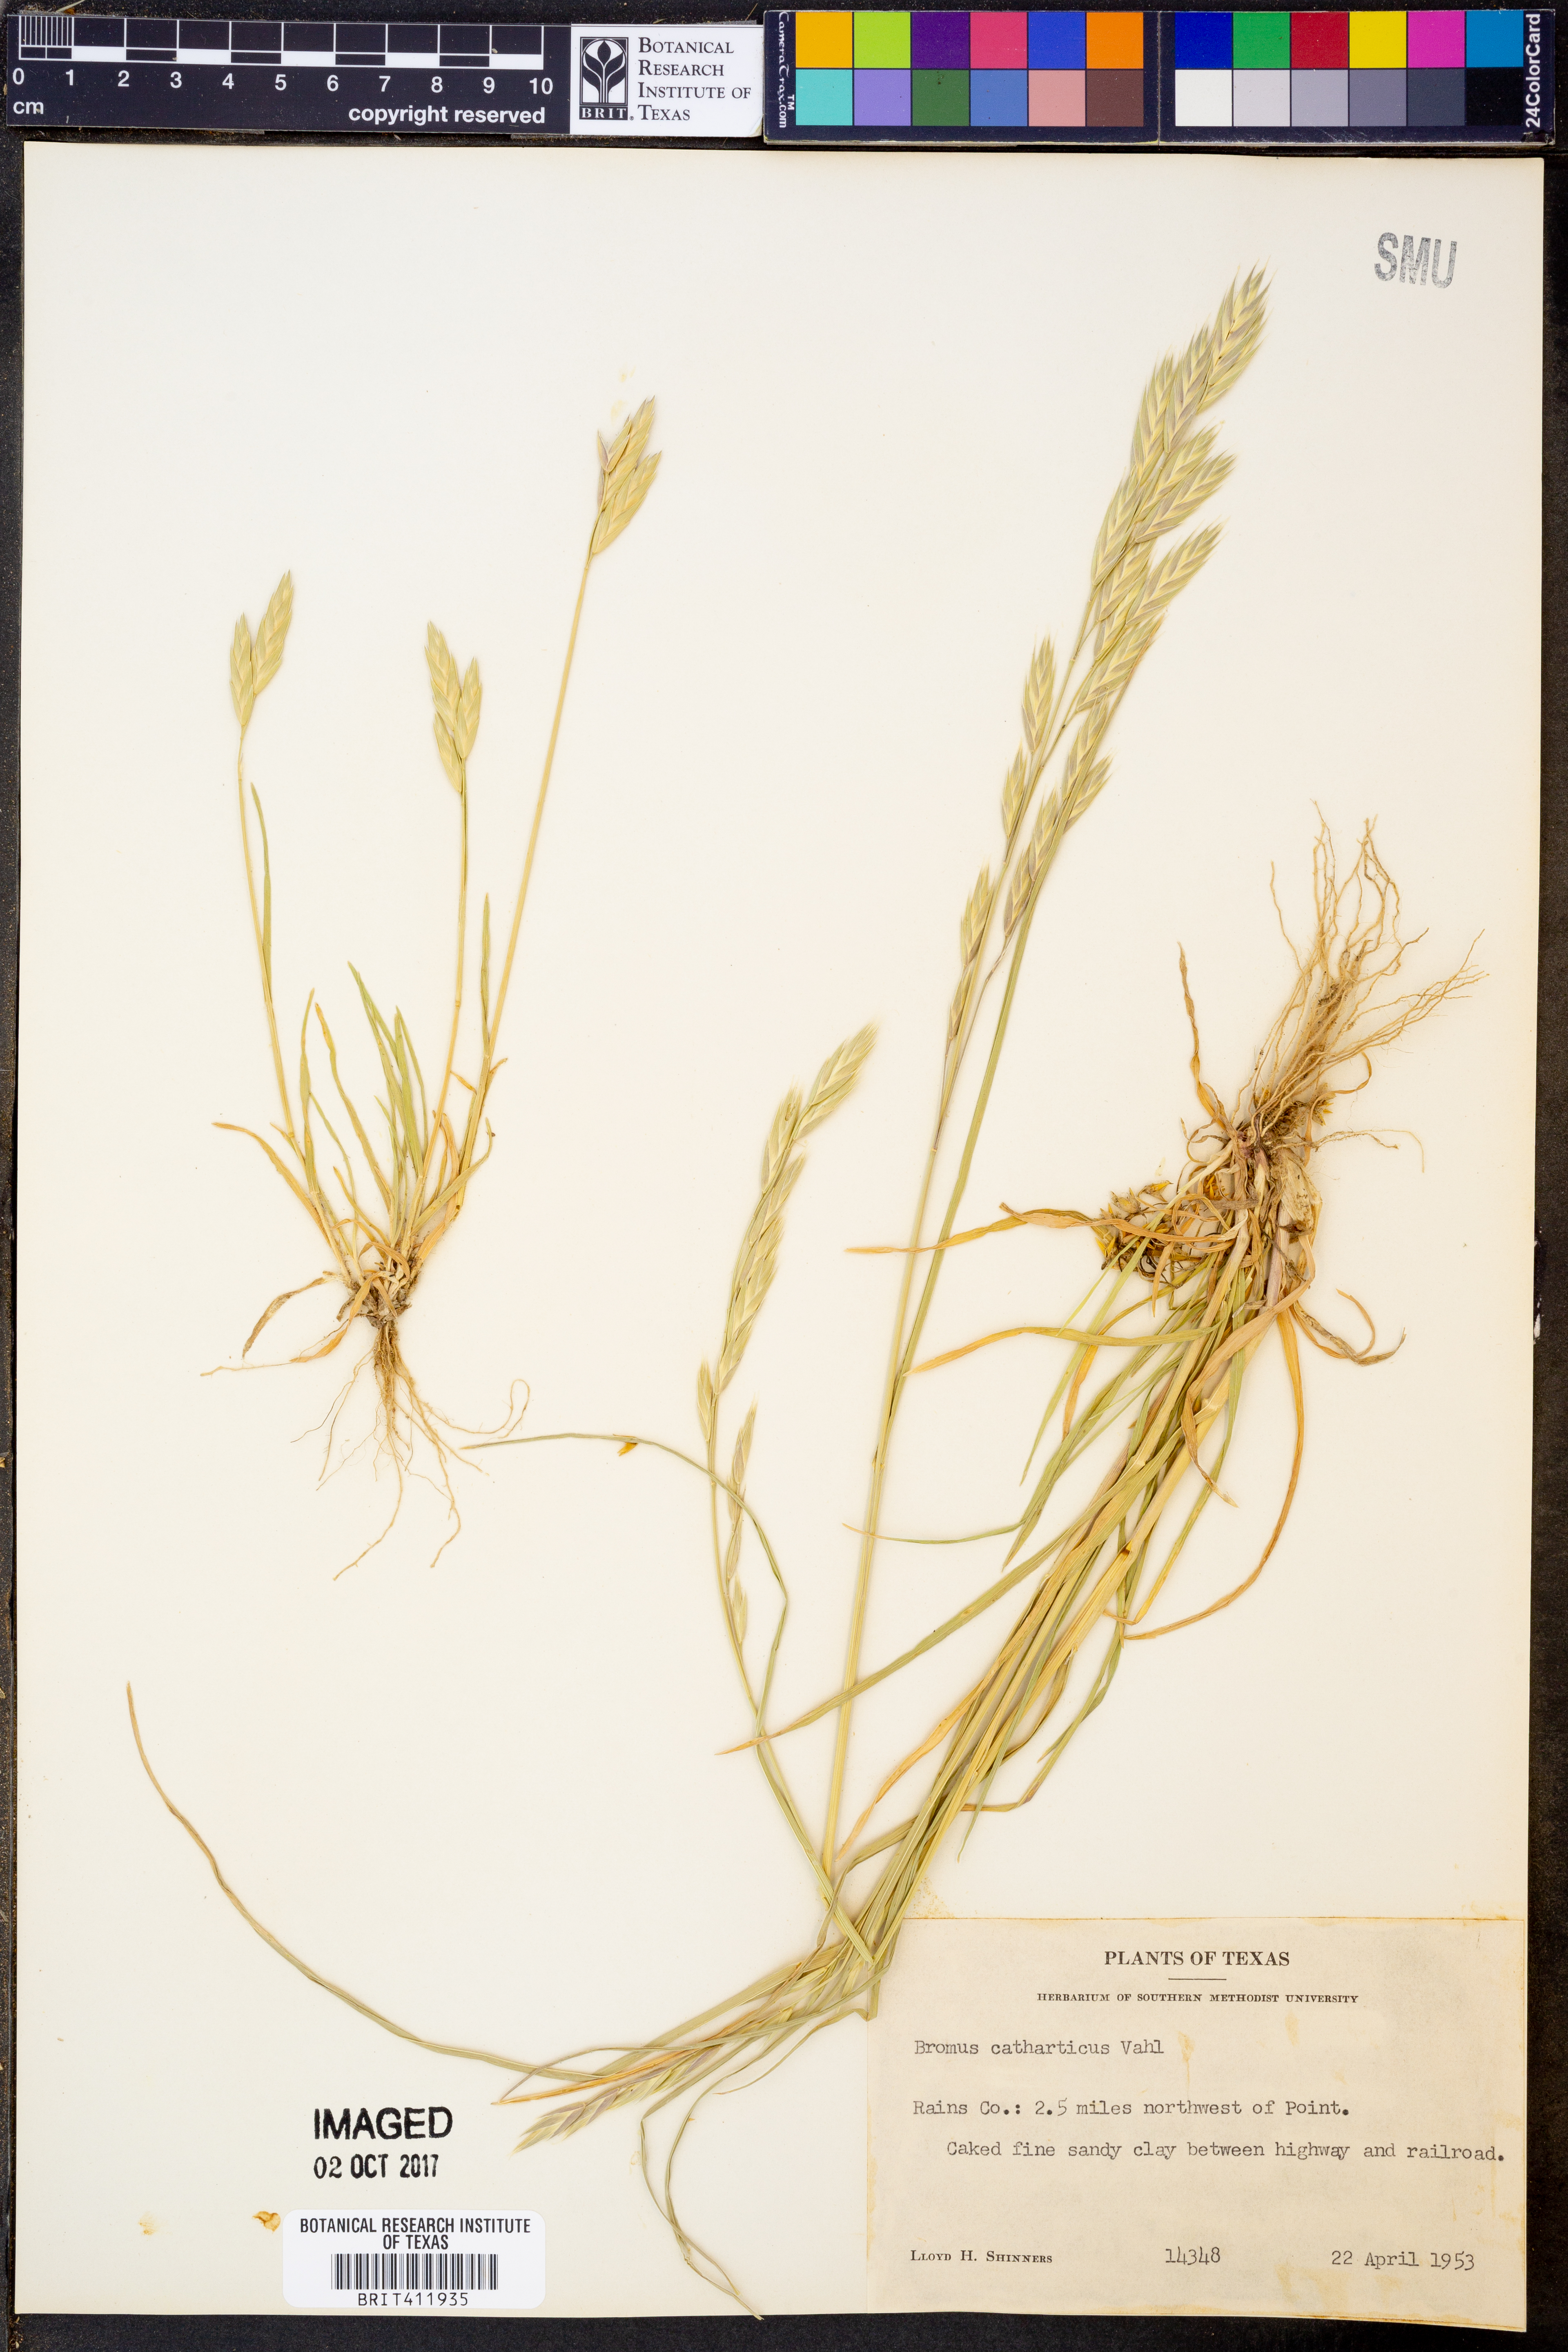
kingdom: Plantae
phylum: Tracheophyta
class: Liliopsida
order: Poales
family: Poaceae
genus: Bromus
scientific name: Bromus catharticus
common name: Rescuegrass
